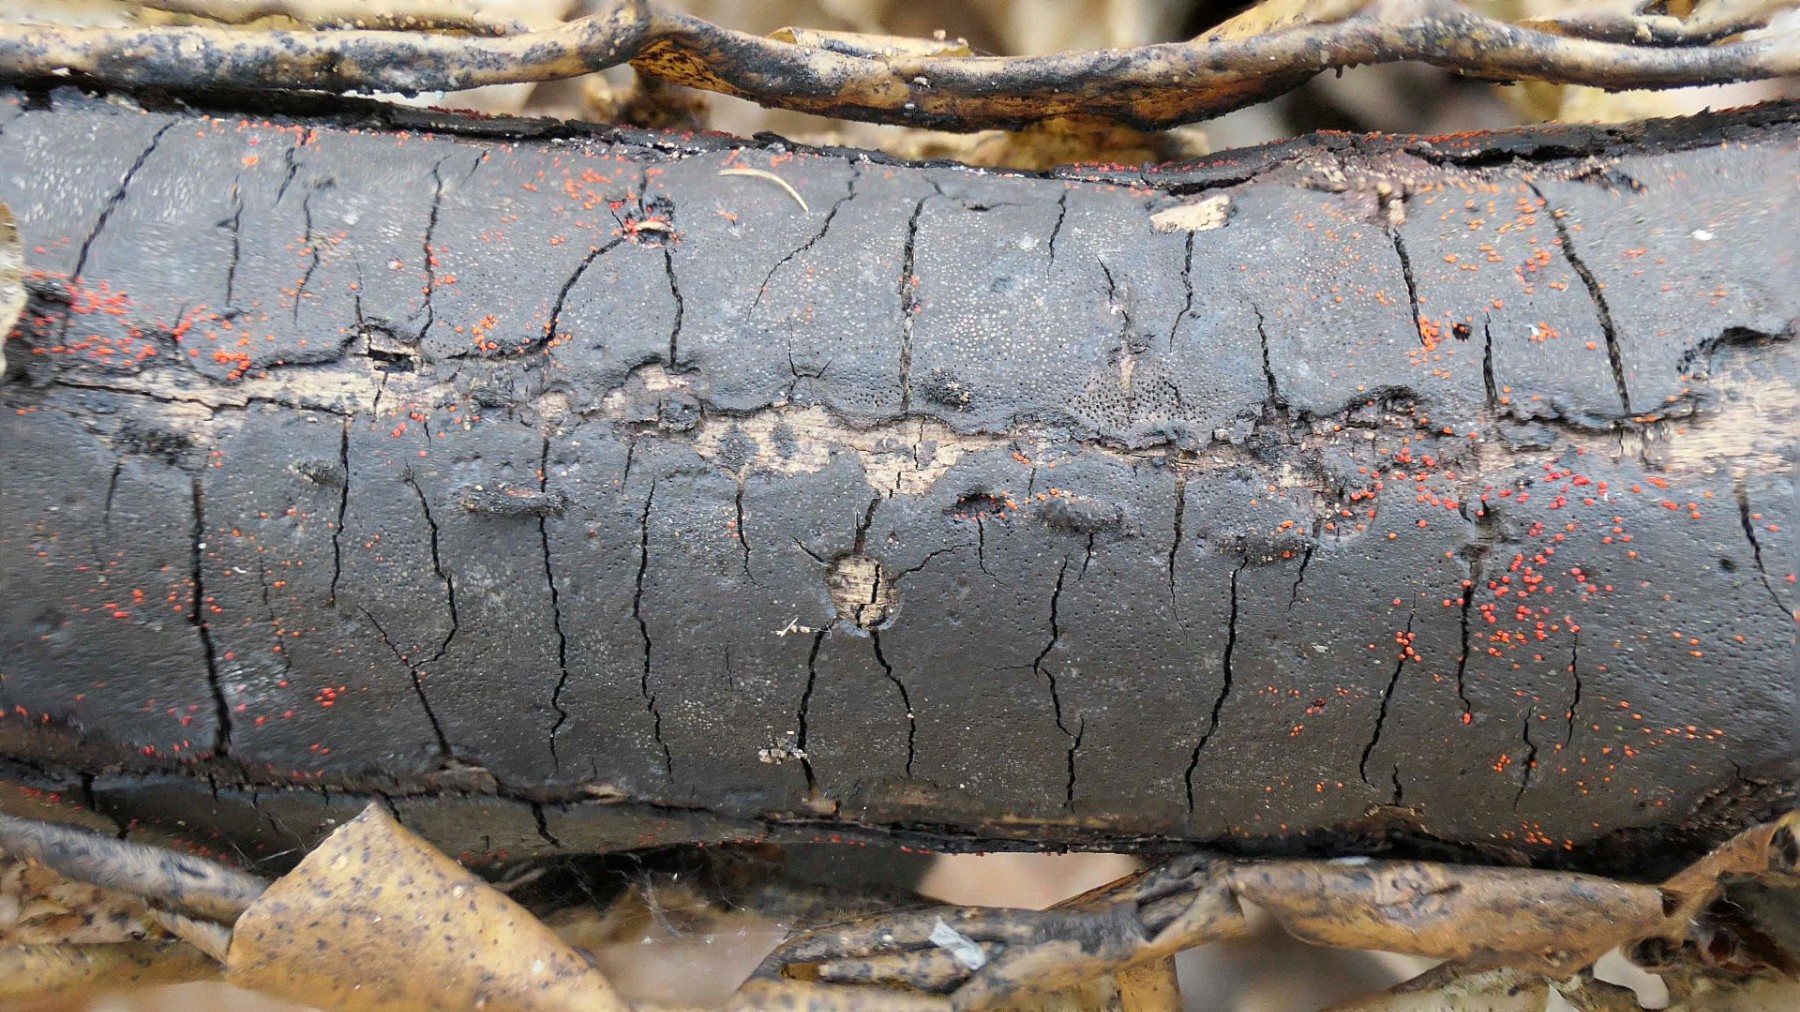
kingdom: Fungi
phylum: Ascomycota
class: Sordariomycetes
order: Hypocreales
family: Nectriaceae
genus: Dialonectria
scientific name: Dialonectria episphaeria
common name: kulskorpe-cinnobersvamp
